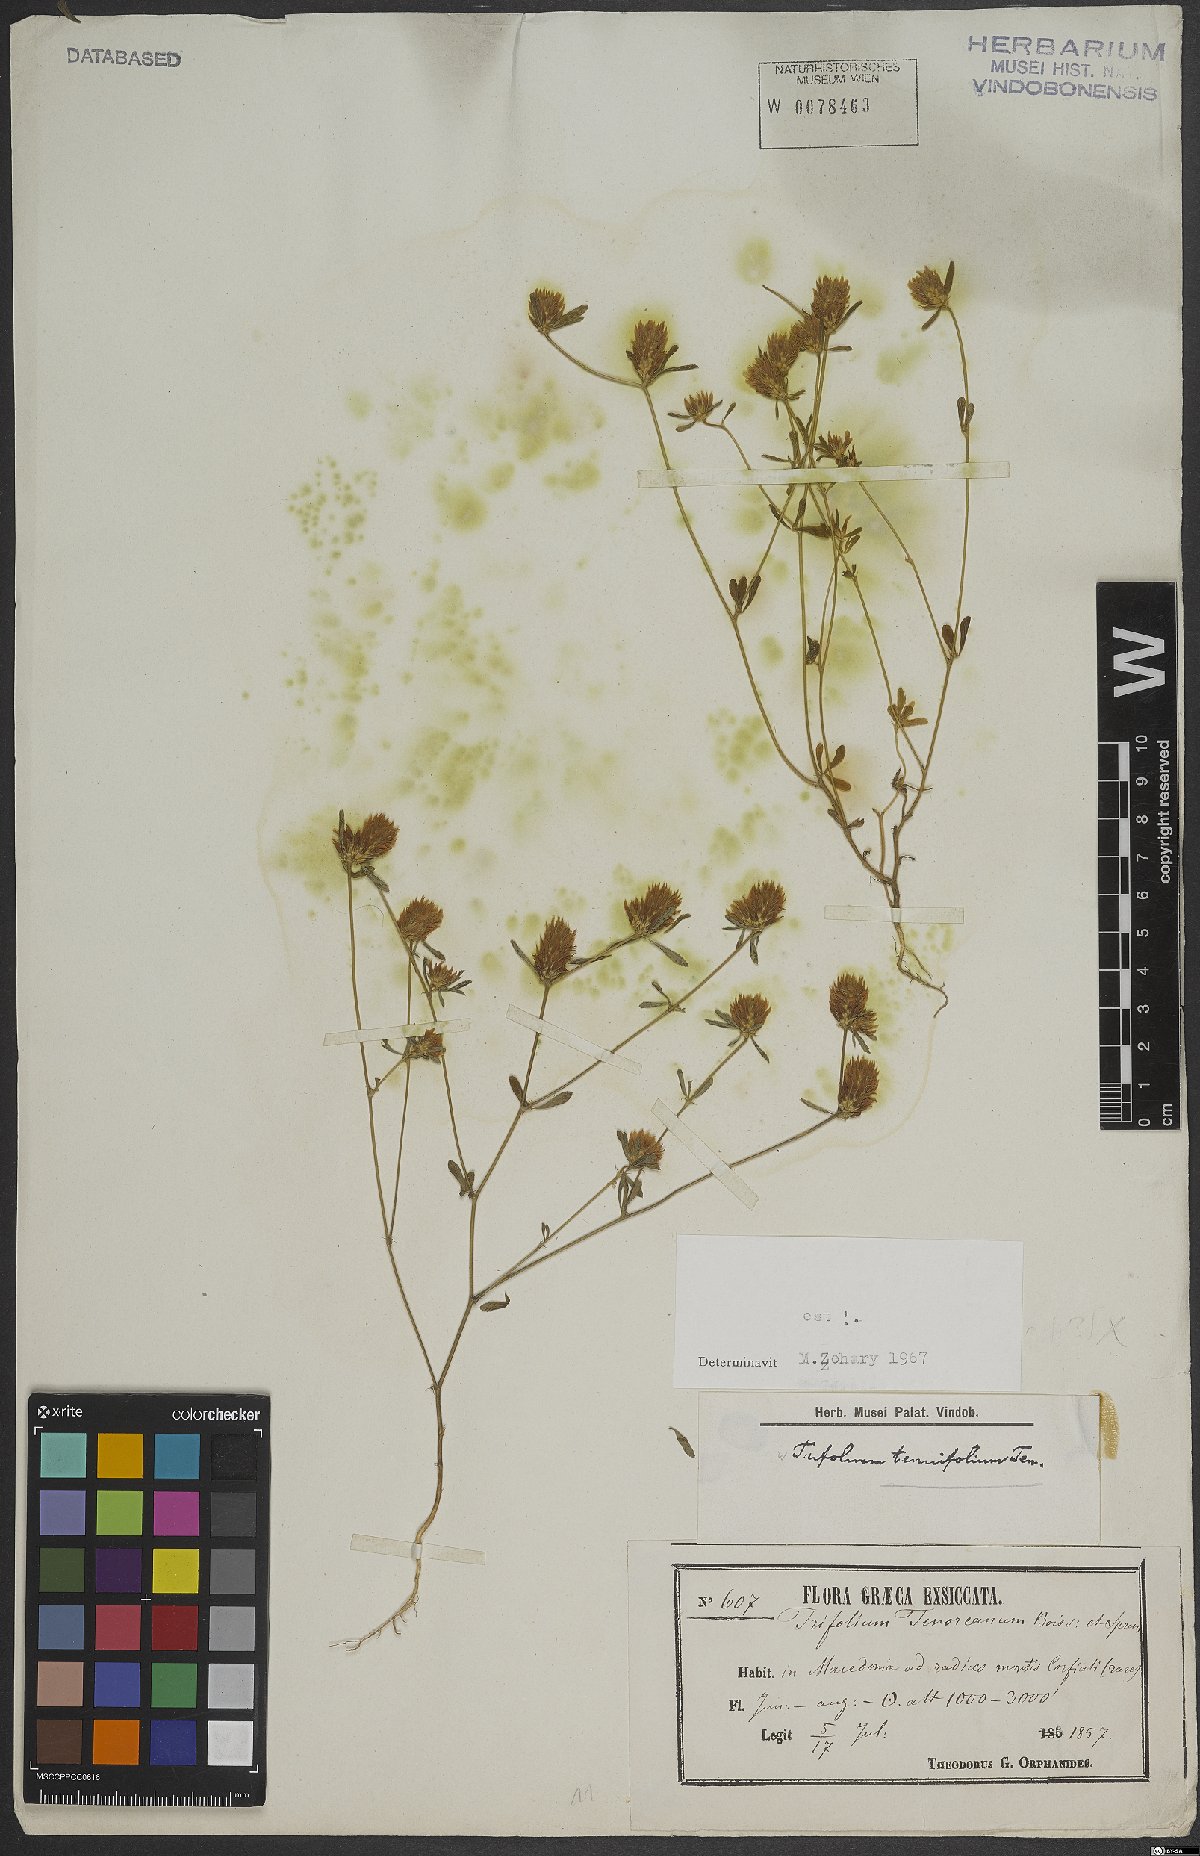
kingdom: Plantae
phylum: Tracheophyta
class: Magnoliopsida
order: Fabales
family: Fabaceae
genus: Trifolium
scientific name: Trifolium tenuifolium
